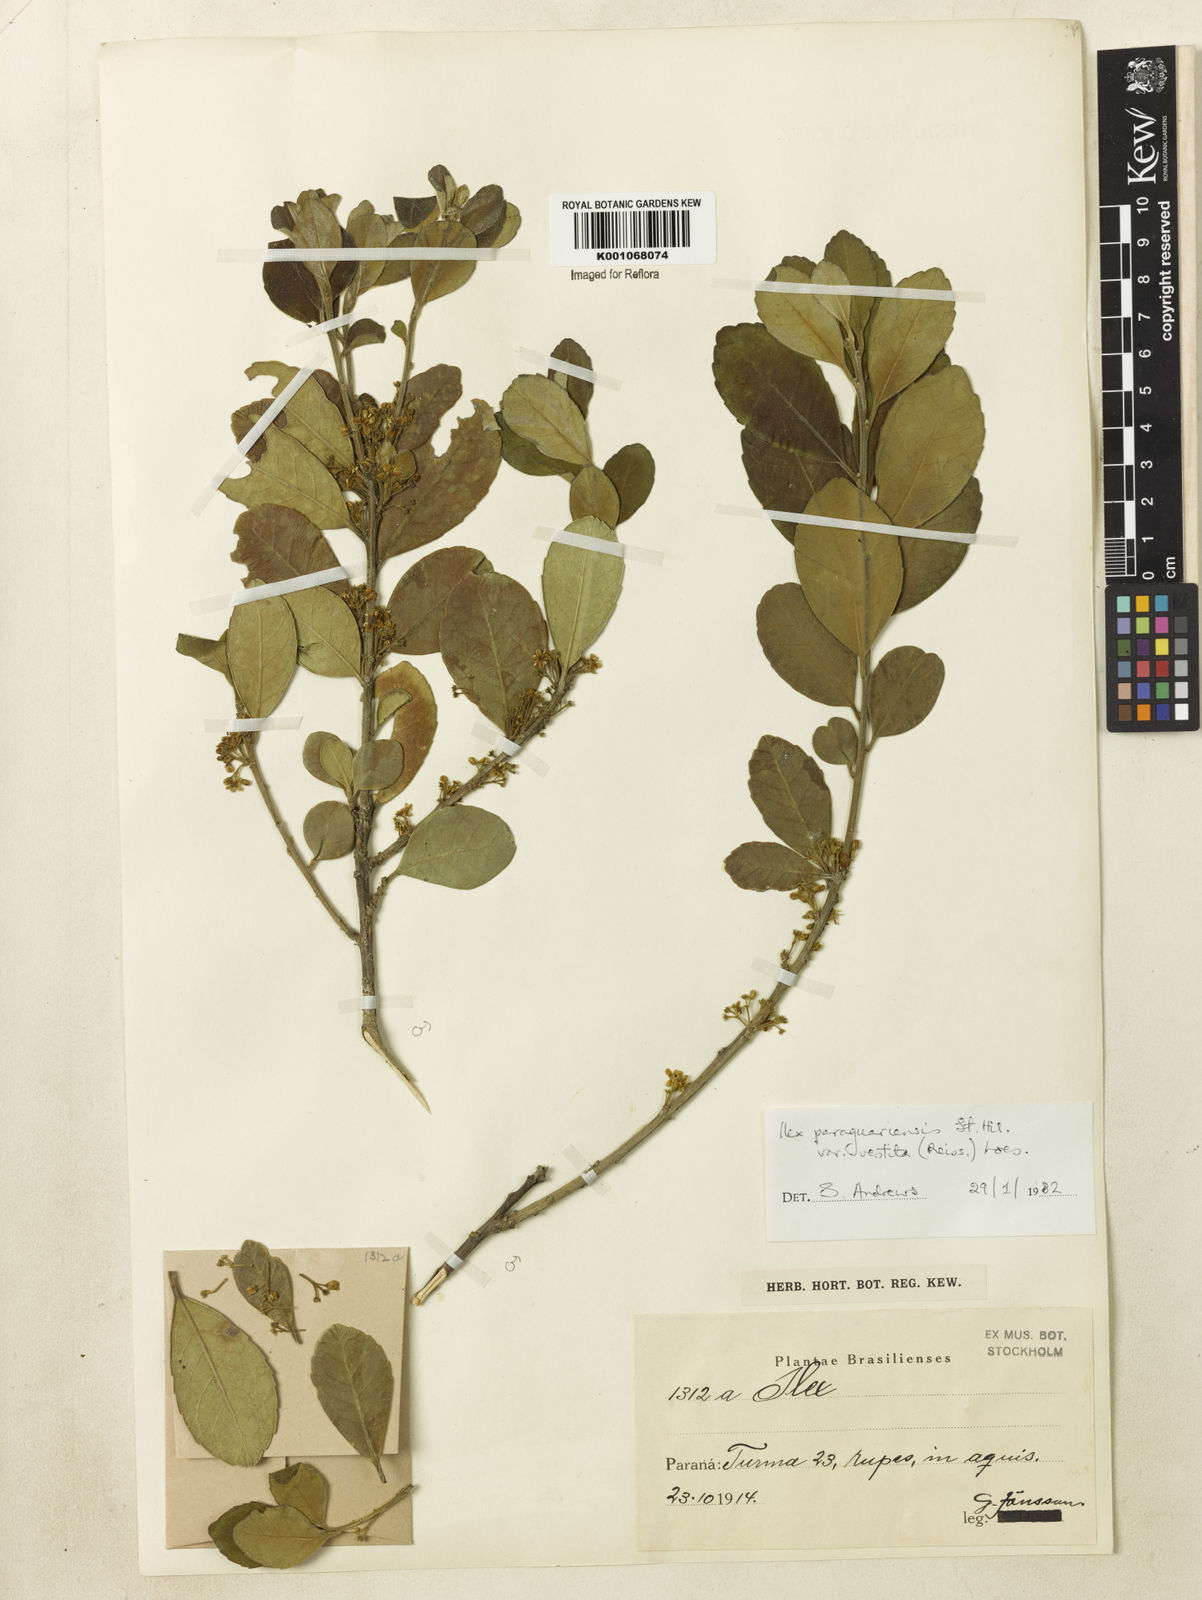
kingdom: Plantae
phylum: Tracheophyta
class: Magnoliopsida
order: Aquifoliales
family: Aquifoliaceae
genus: Ilex
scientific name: Ilex paraguariensis
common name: Paraguay tea
